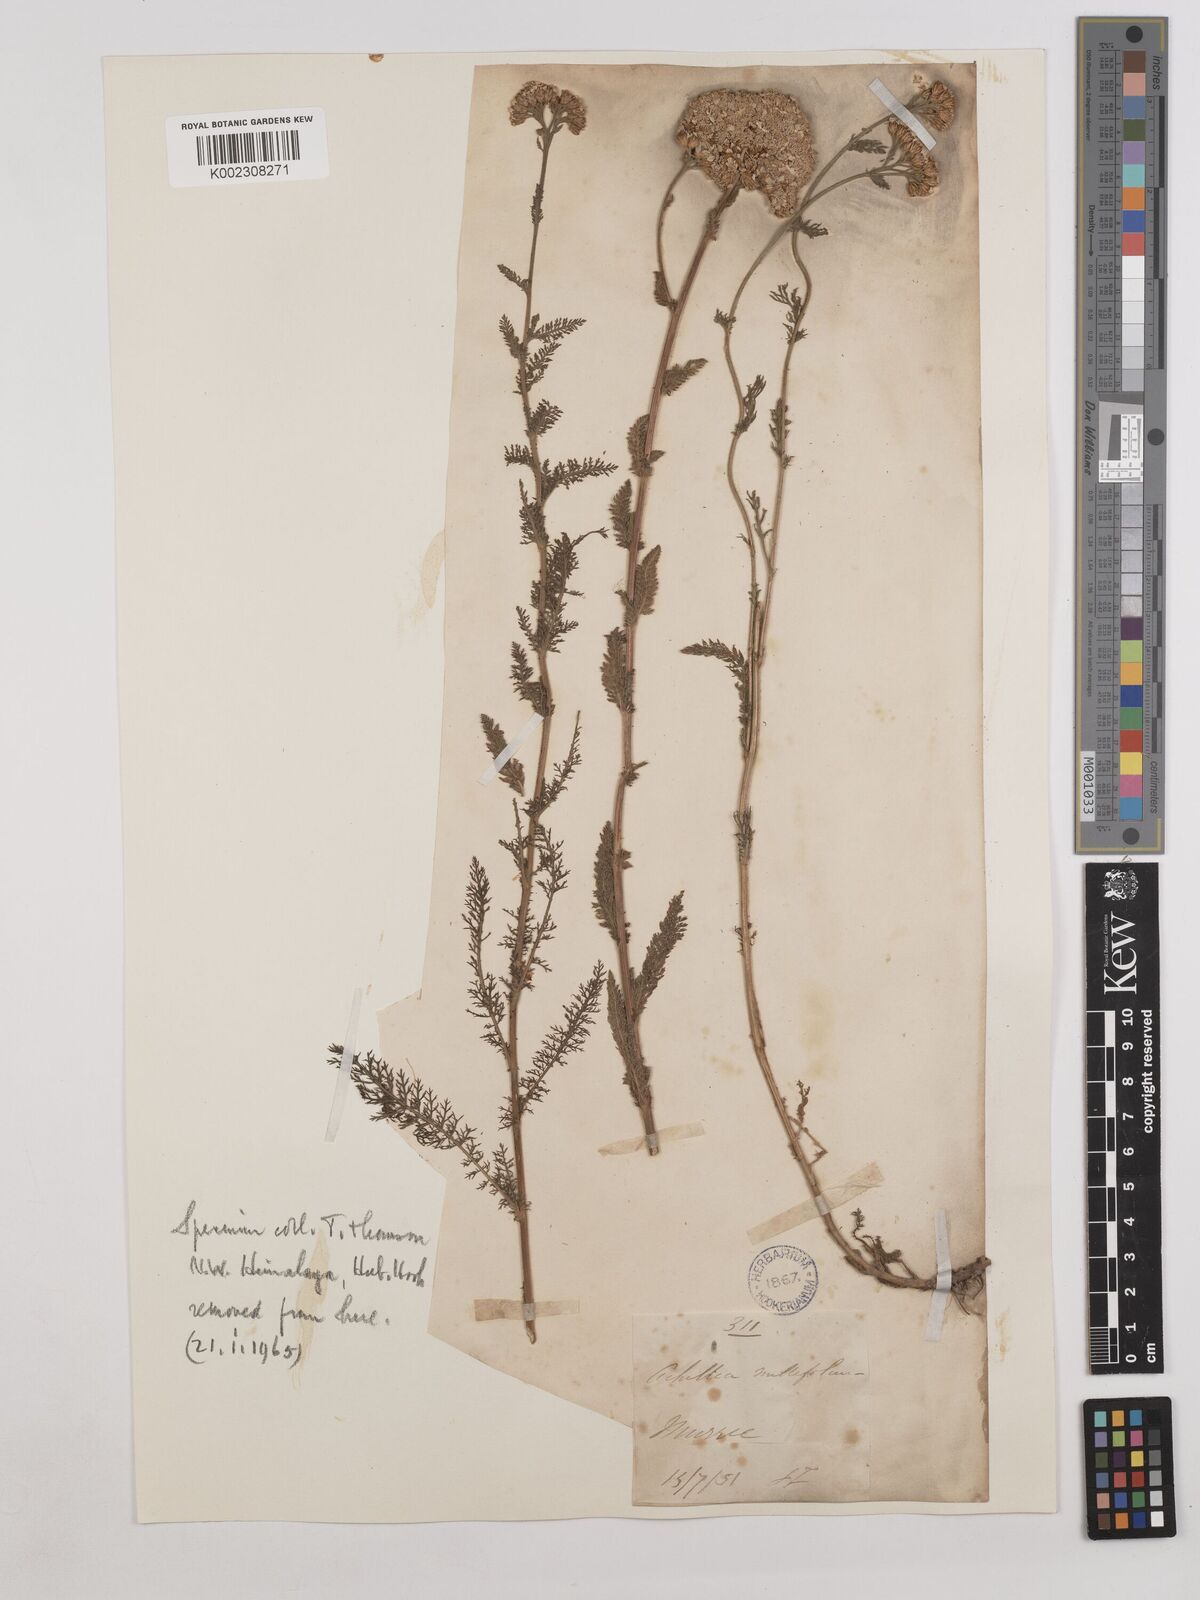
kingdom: Plantae
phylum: Tracheophyta
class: Magnoliopsida
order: Asterales
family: Asteraceae
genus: Achillea
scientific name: Achillea millefolium
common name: Yarrow
